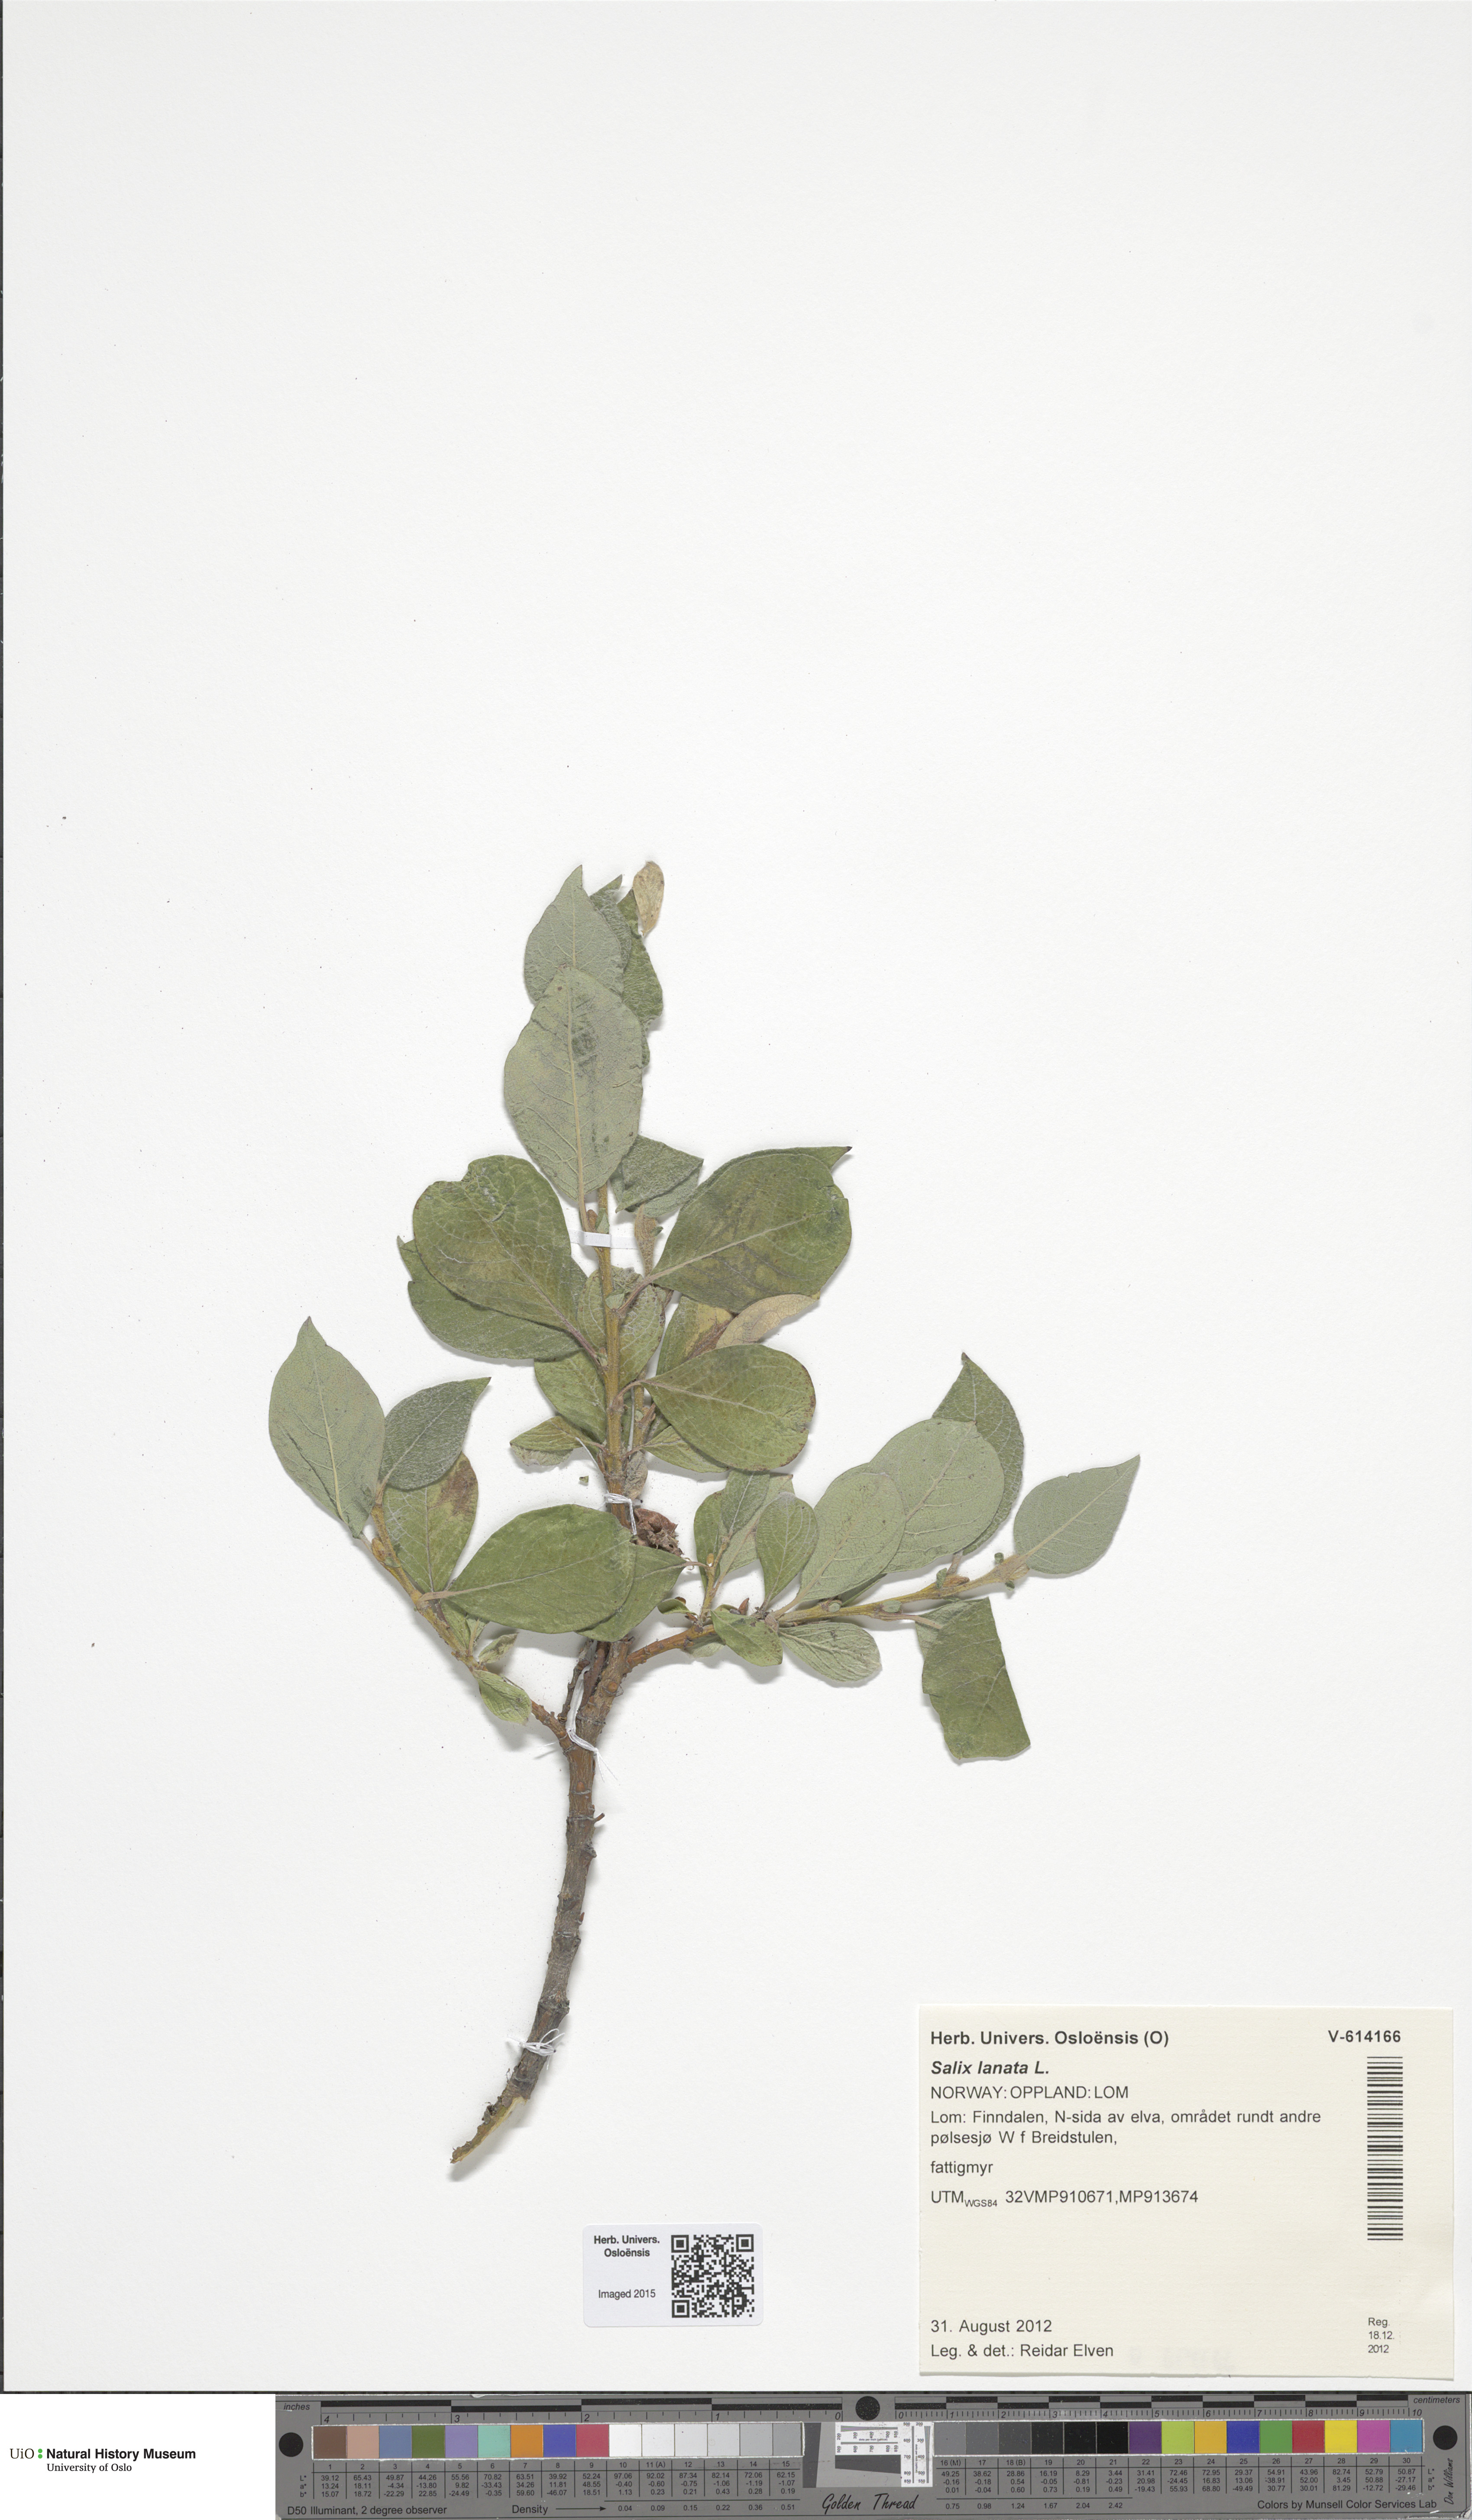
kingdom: Plantae
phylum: Tracheophyta
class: Magnoliopsida
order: Malpighiales
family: Salicaceae
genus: Salix
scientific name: Salix lanata
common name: Woolly willow
